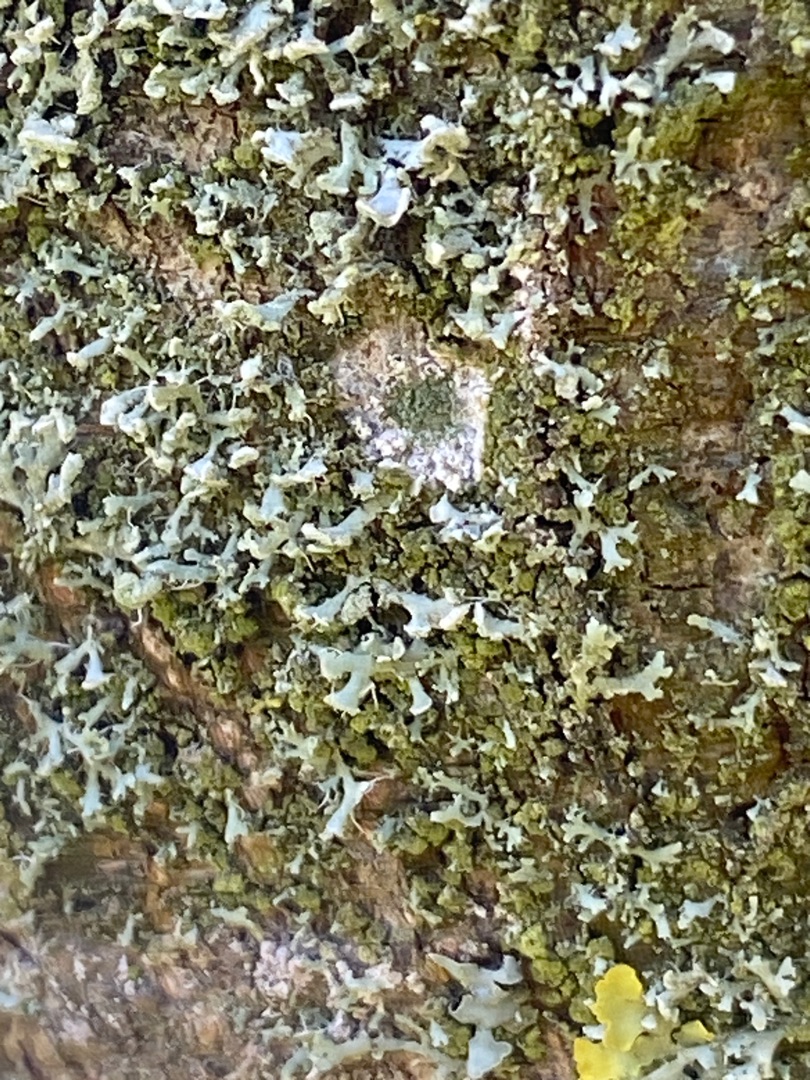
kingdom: Fungi
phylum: Ascomycota
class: Lecanoromycetes
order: Caliciales
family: Physciaceae
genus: Physcia
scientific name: Physcia tenella
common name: Spæd rosetlav
